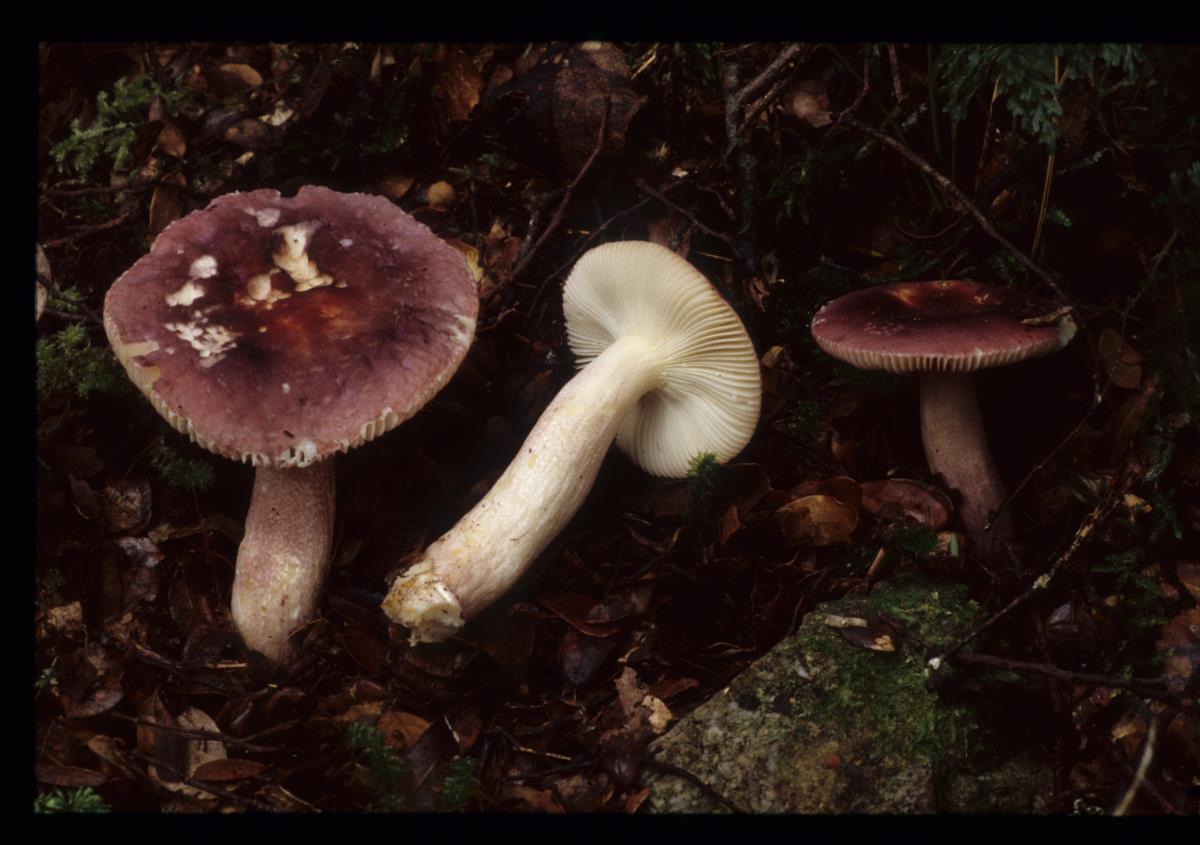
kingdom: Fungi
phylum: Basidiomycota
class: Agaricomycetes
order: Russulales
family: Russulaceae
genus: Russula
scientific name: Russula
